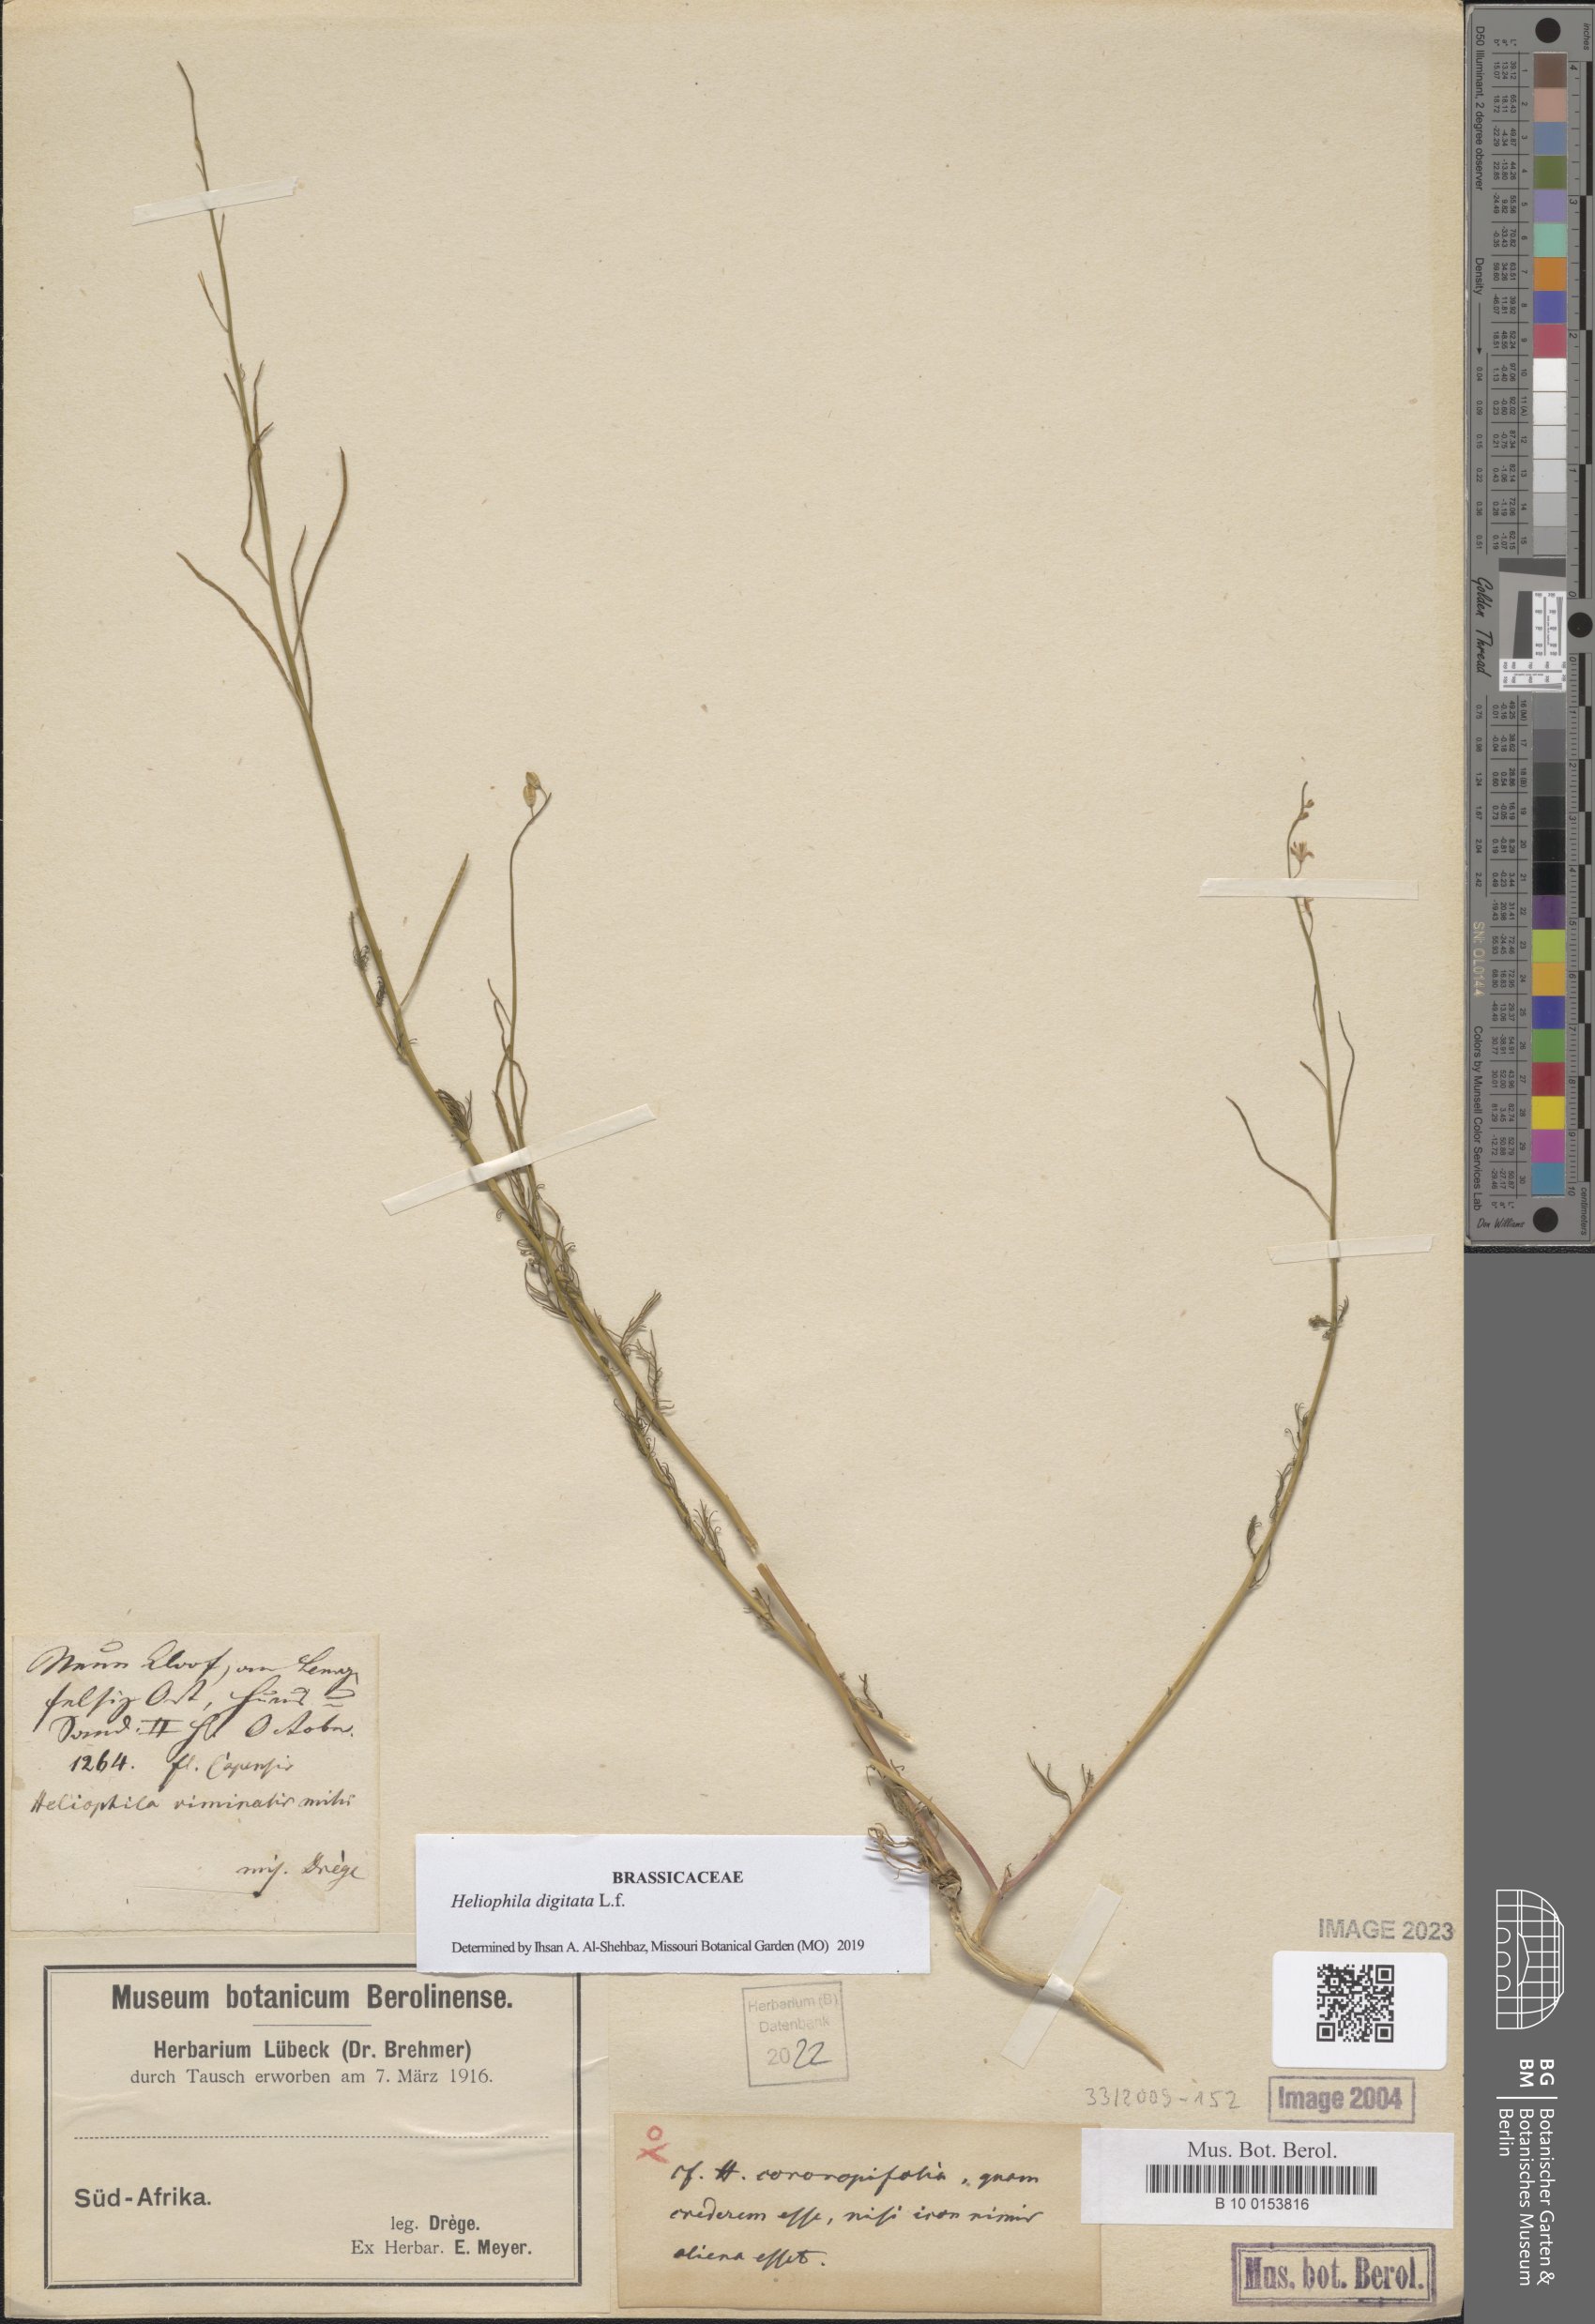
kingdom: Plantae
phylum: Tracheophyta
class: Magnoliopsida
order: Brassicales
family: Brassicaceae
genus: Heliophila
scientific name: Heliophila digitata
